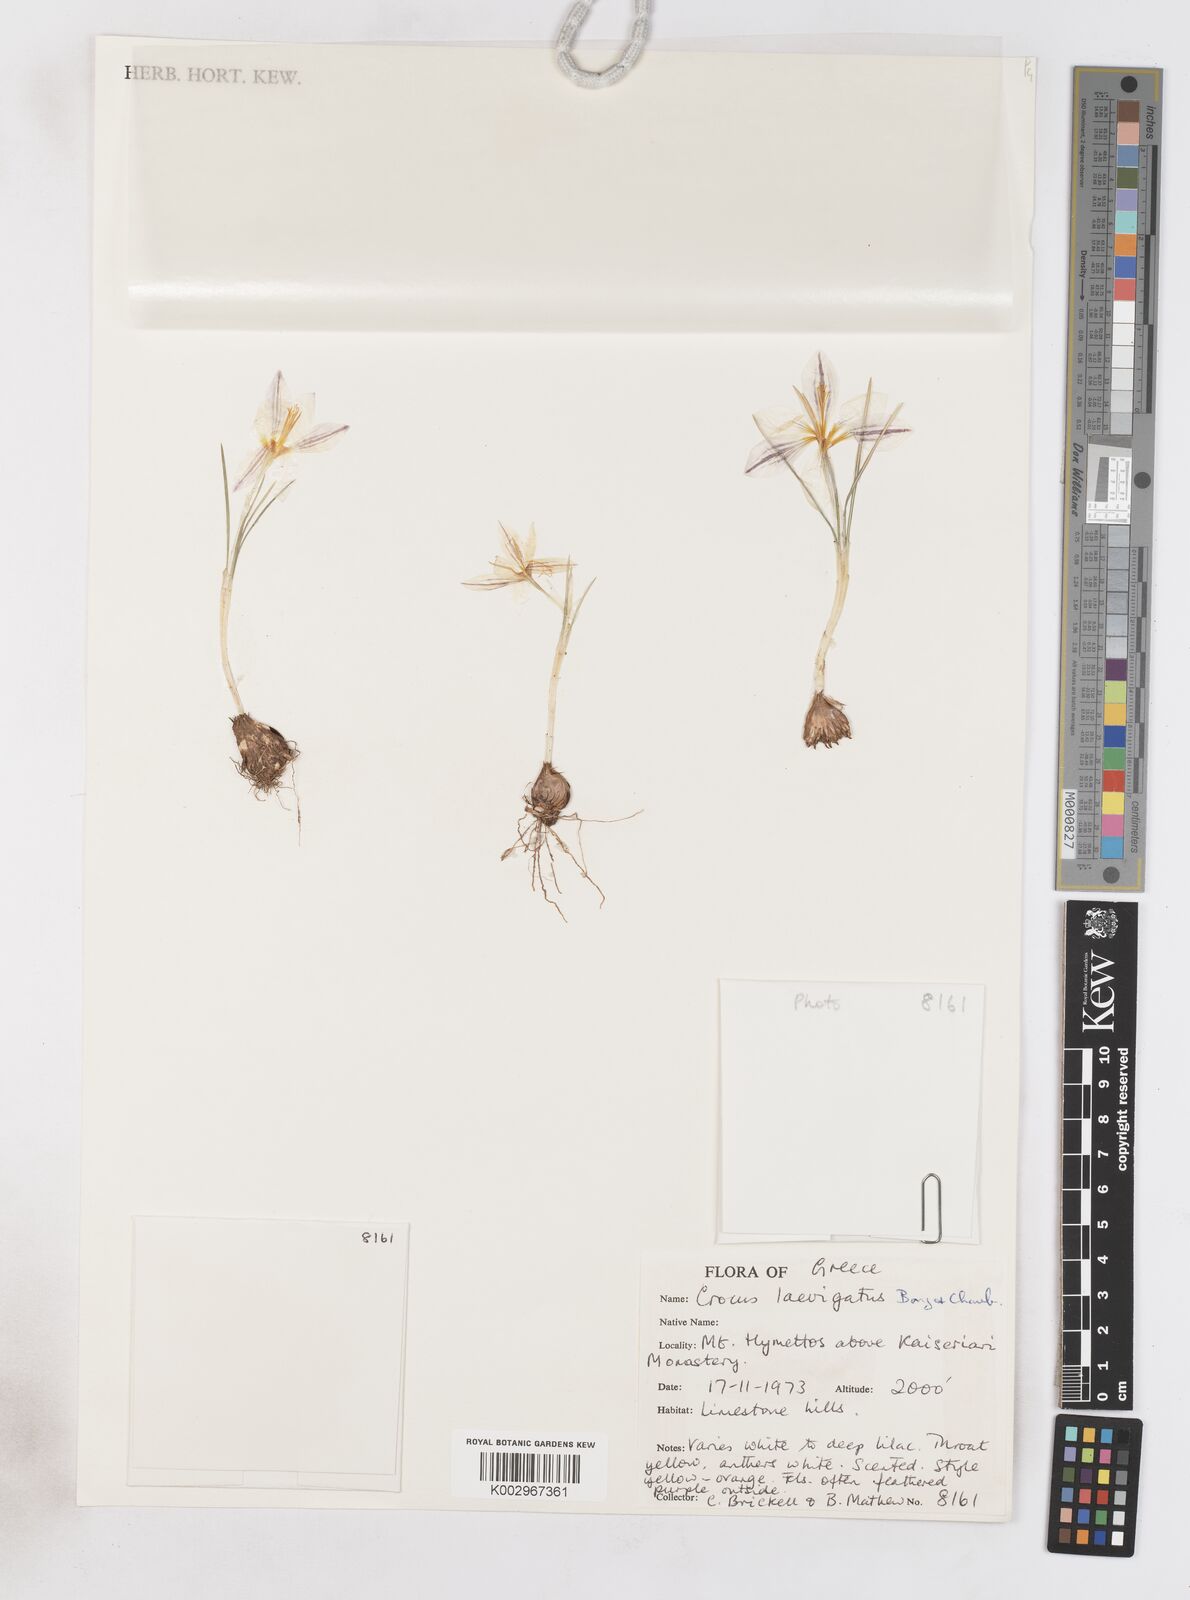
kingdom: Plantae
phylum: Tracheophyta
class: Liliopsida
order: Asparagales
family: Iridaceae
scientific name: Iridaceae
